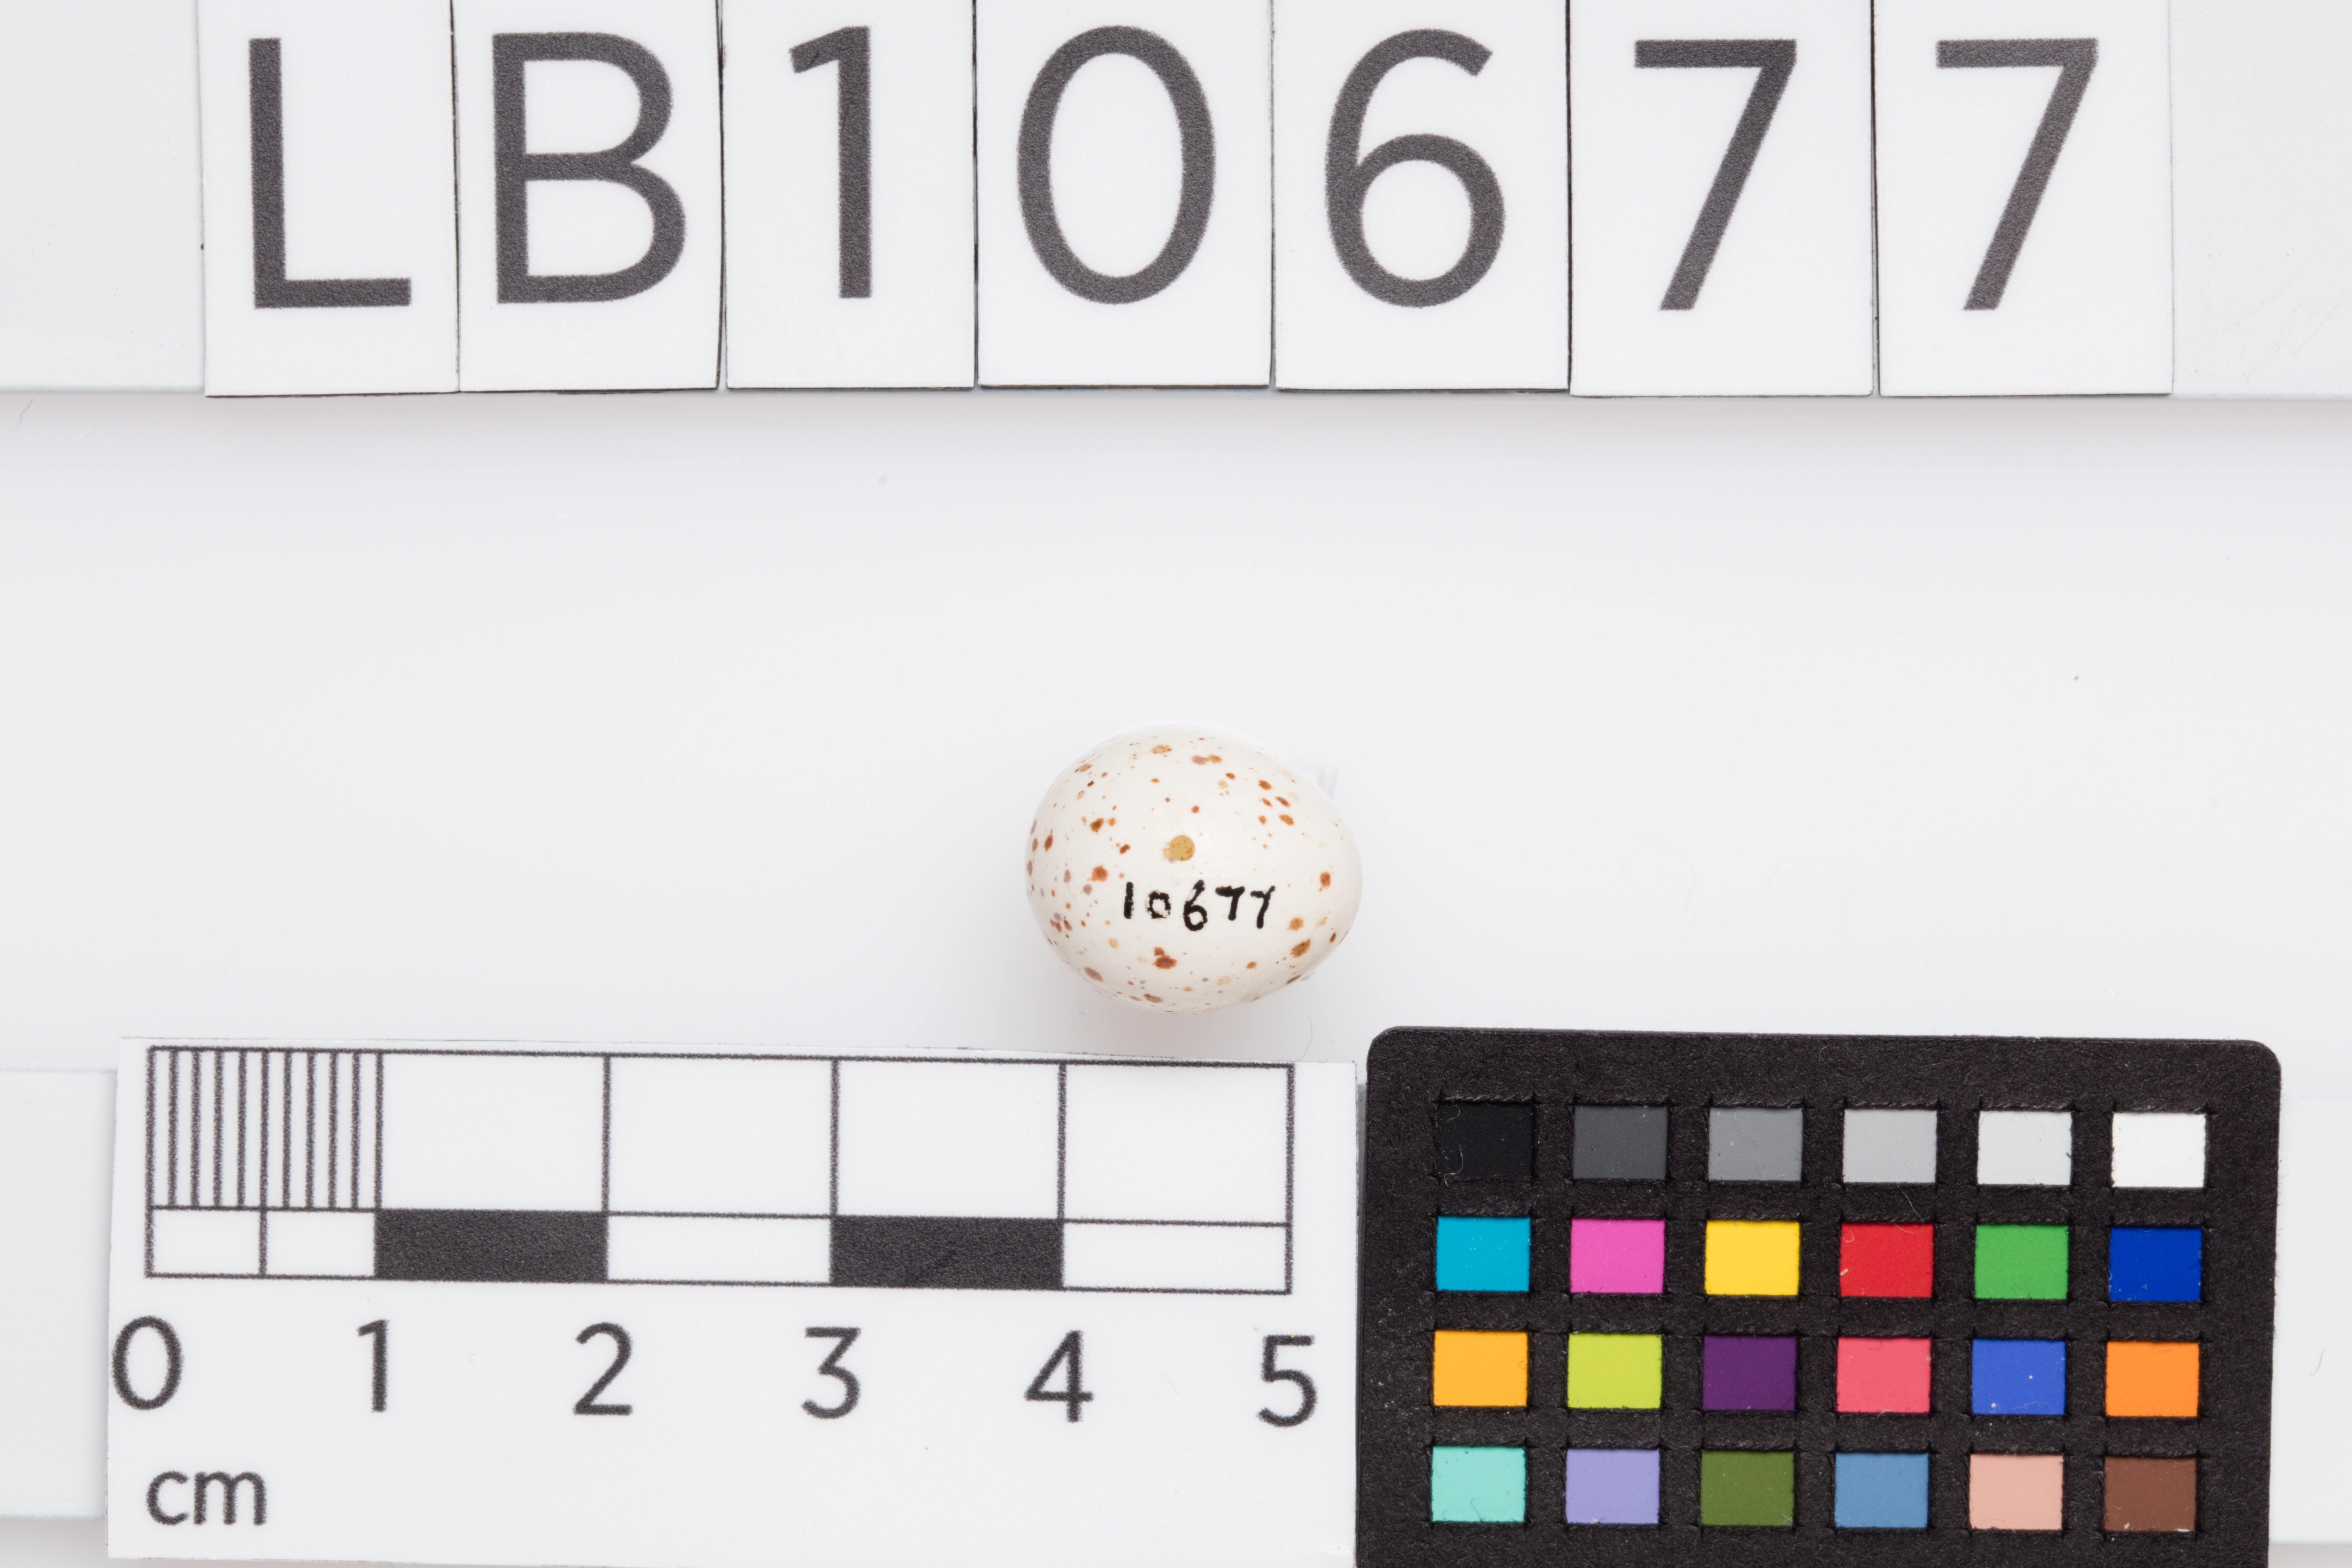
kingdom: Animalia
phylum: Chordata
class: Aves
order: Passeriformes
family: Phylloscopidae
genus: Phylloscopus
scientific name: Phylloscopus collybita
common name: Common chiffchaff
